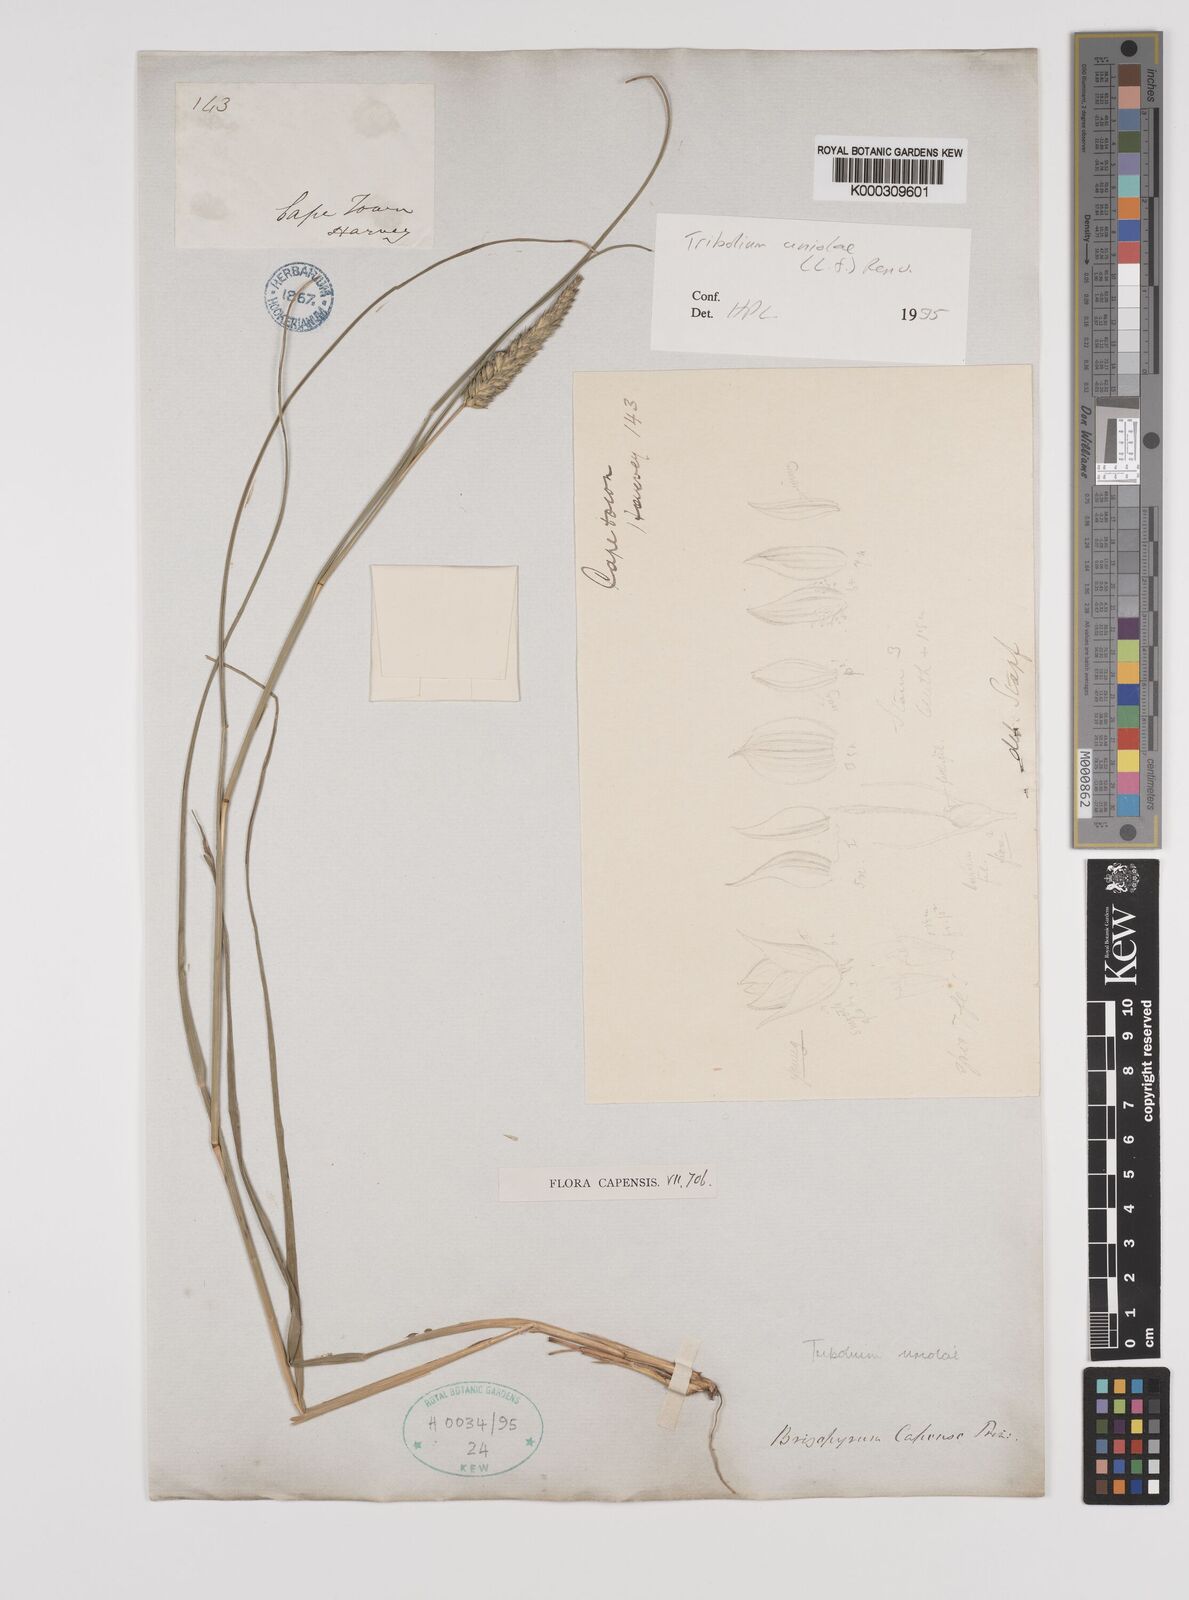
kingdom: Plantae
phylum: Tracheophyta
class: Liliopsida
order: Poales
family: Poaceae
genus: Tribolium
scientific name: Tribolium uniolae
